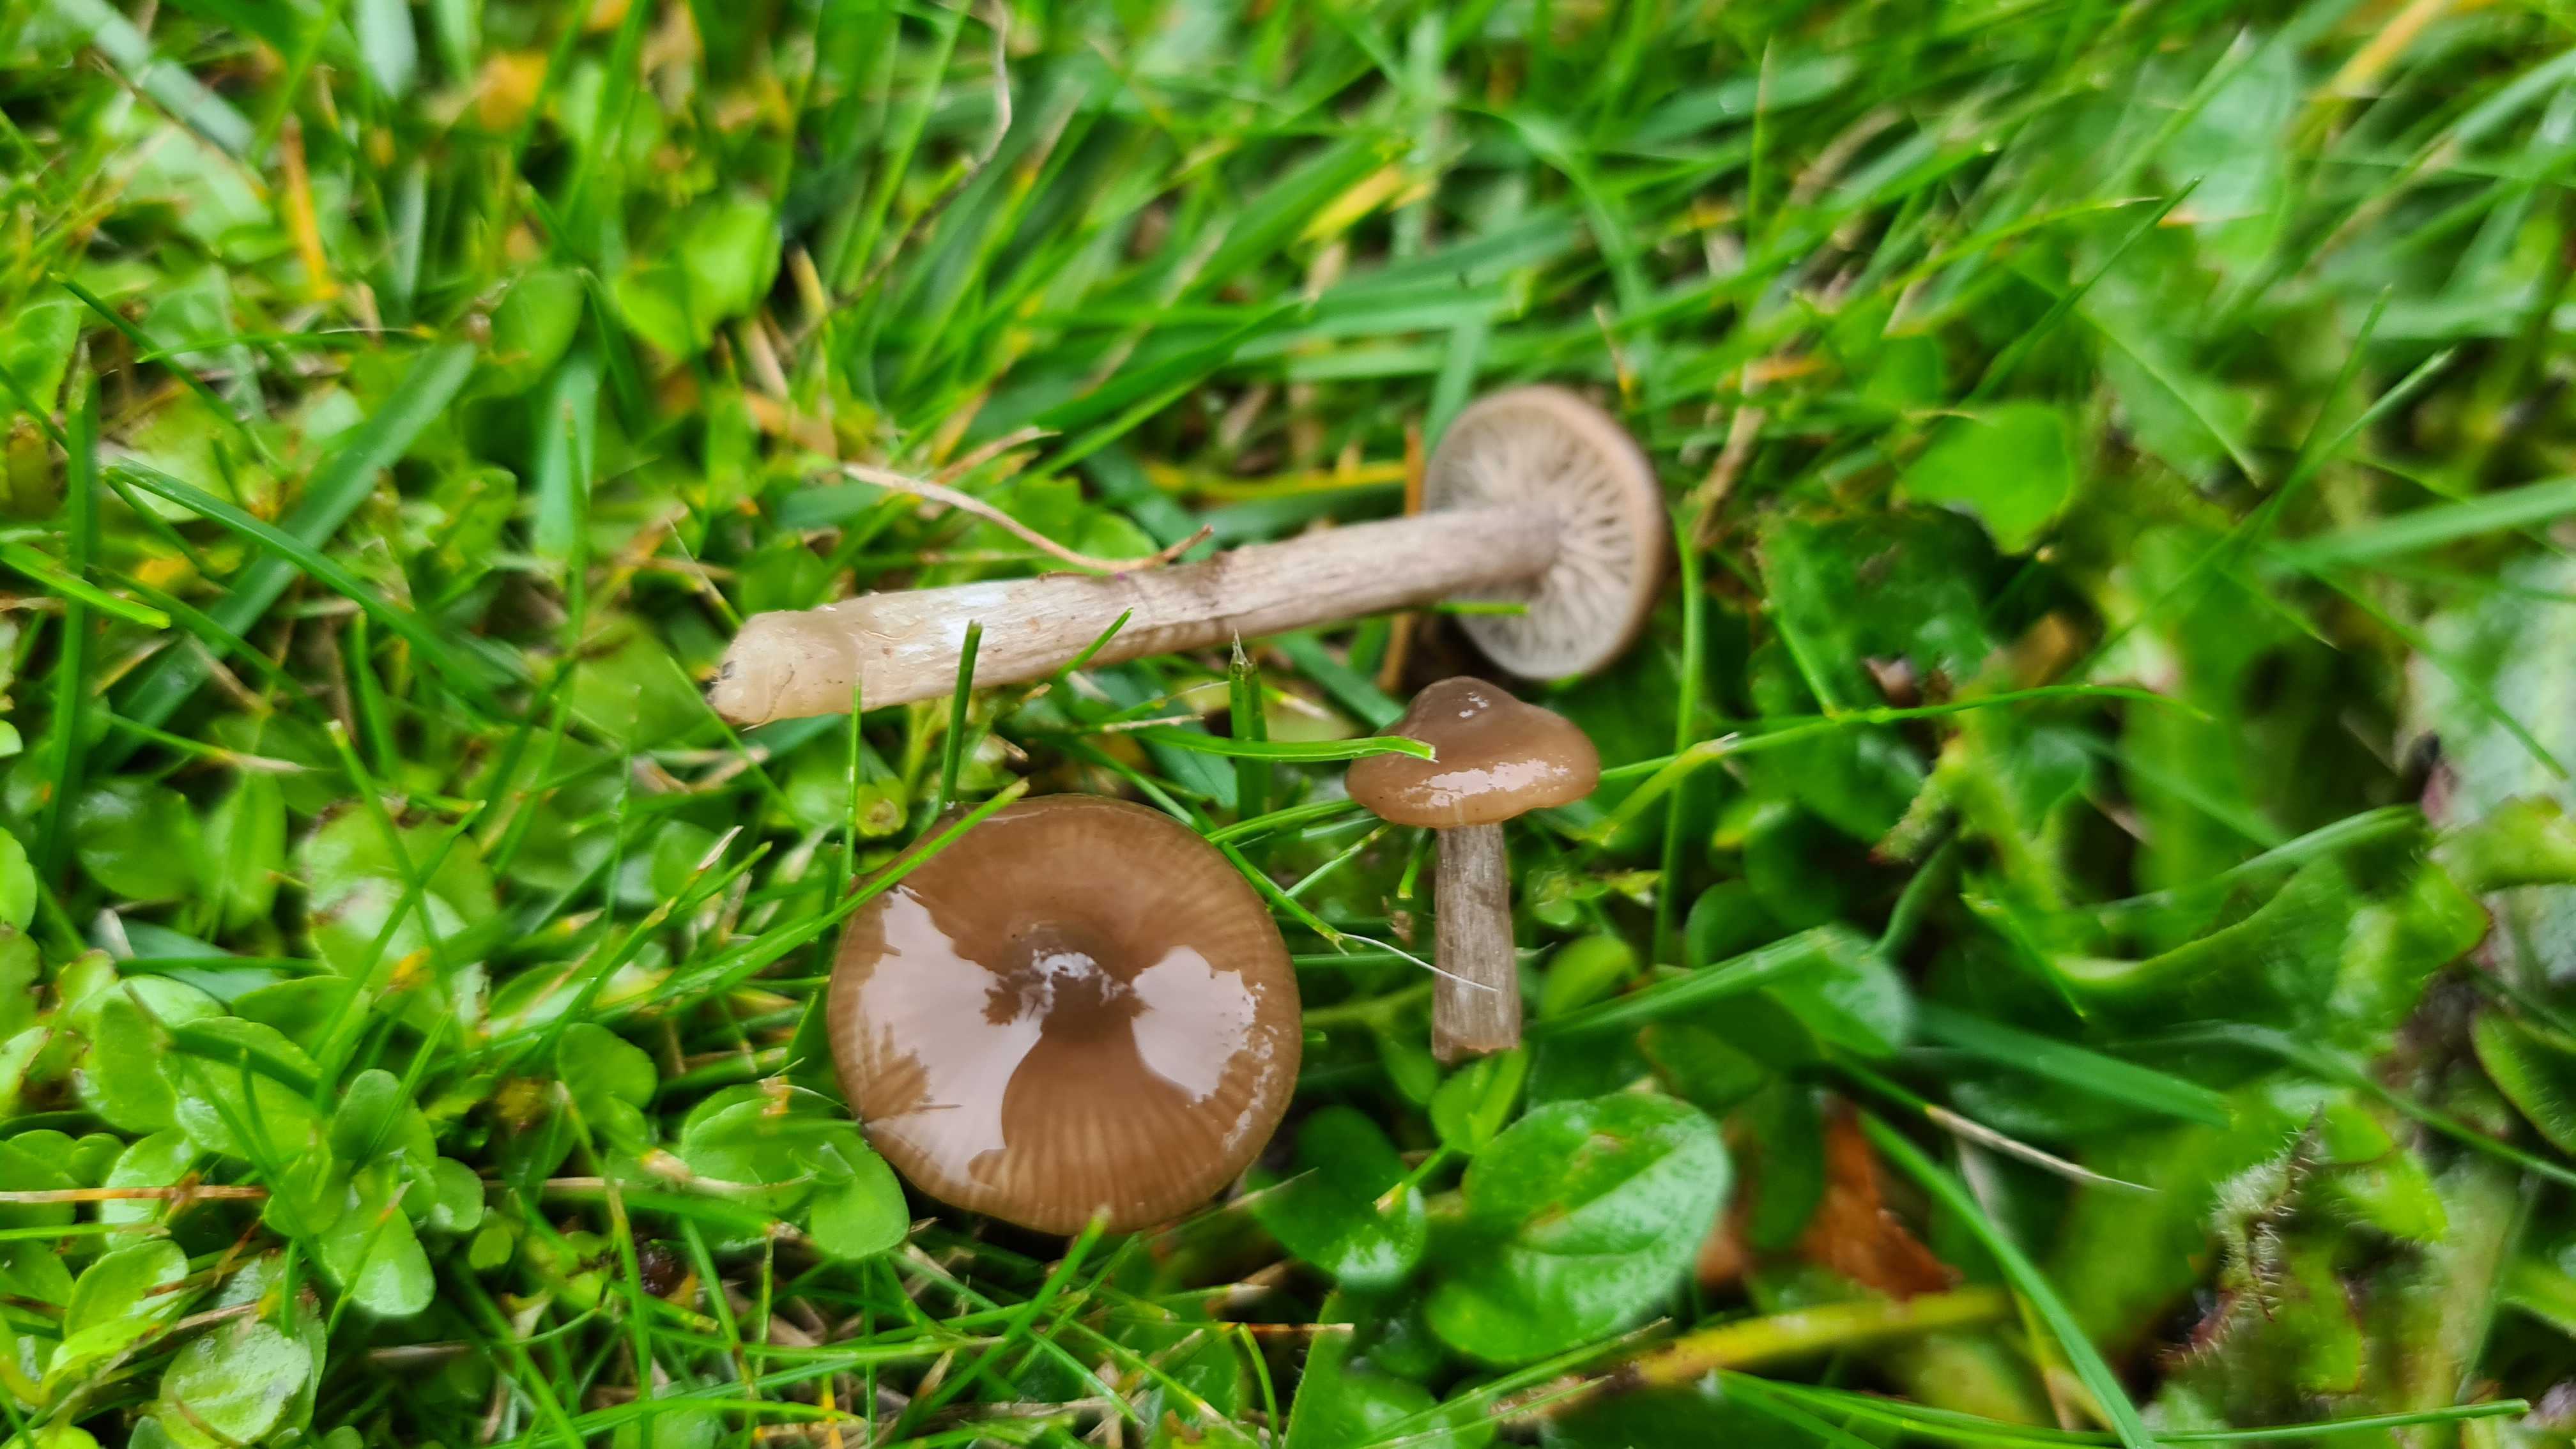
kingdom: Fungi
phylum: Basidiomycota
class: Agaricomycetes
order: Agaricales
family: Entolomataceae
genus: Entoloma
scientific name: Entoloma
